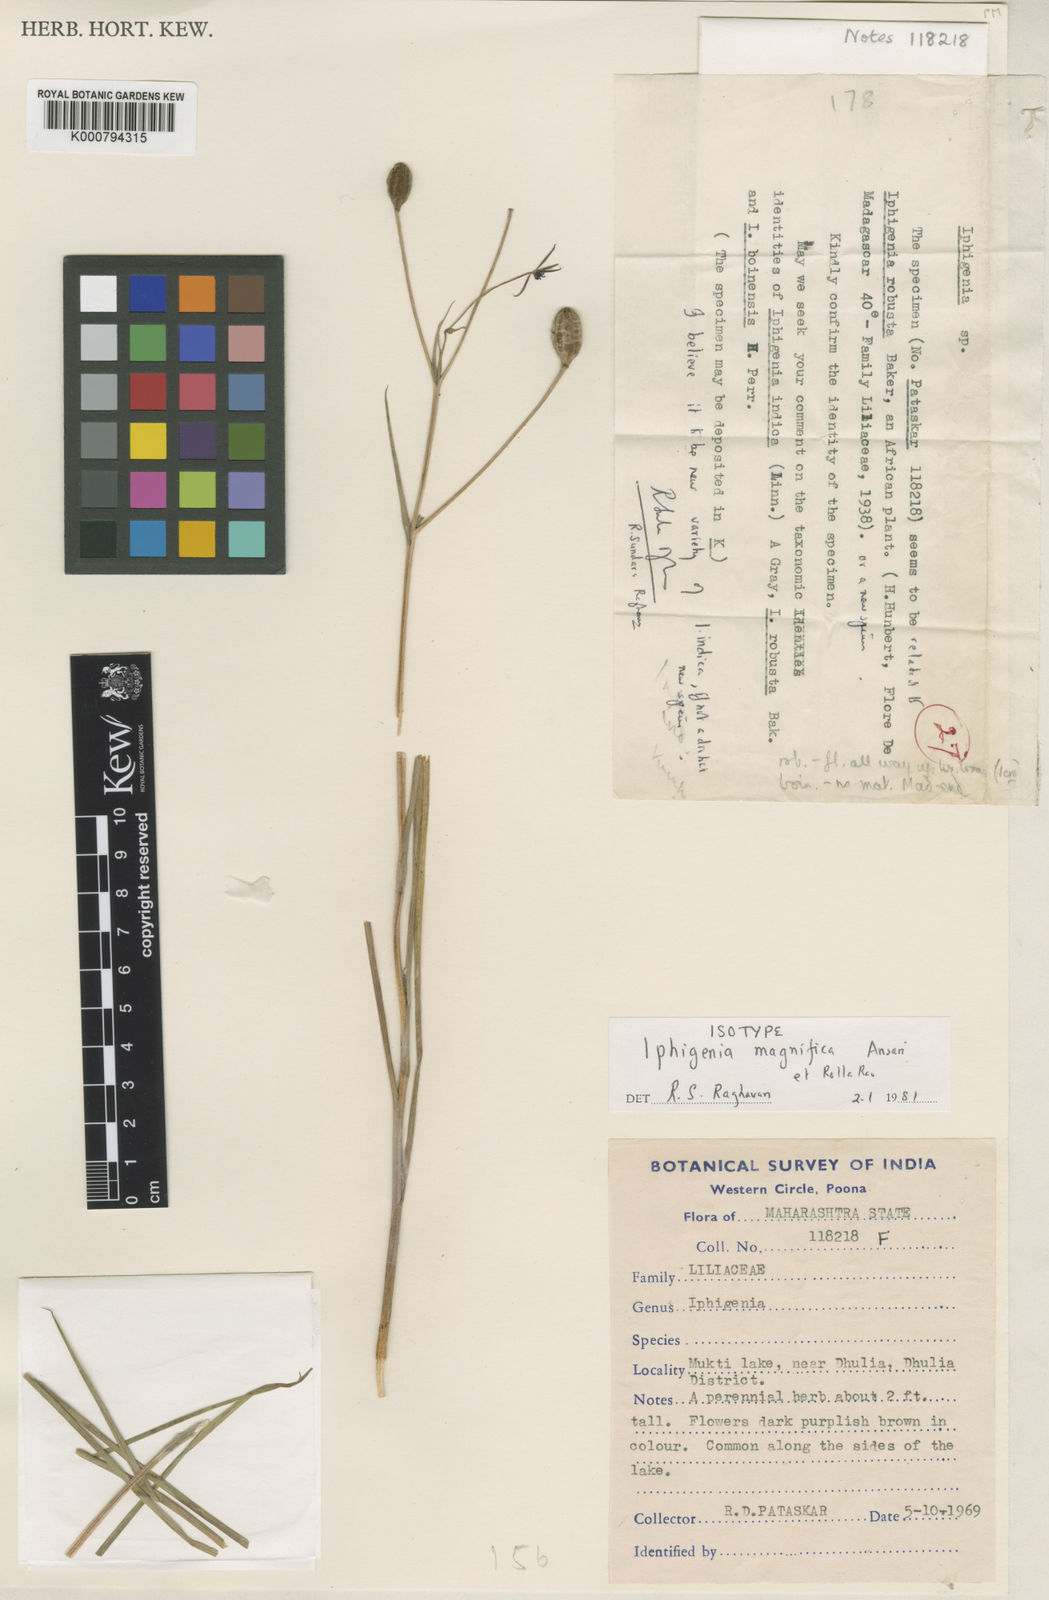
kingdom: Plantae
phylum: Tracheophyta
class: Liliopsida
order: Liliales
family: Colchicaceae
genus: Iphigenia
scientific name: Iphigenia magnifica
